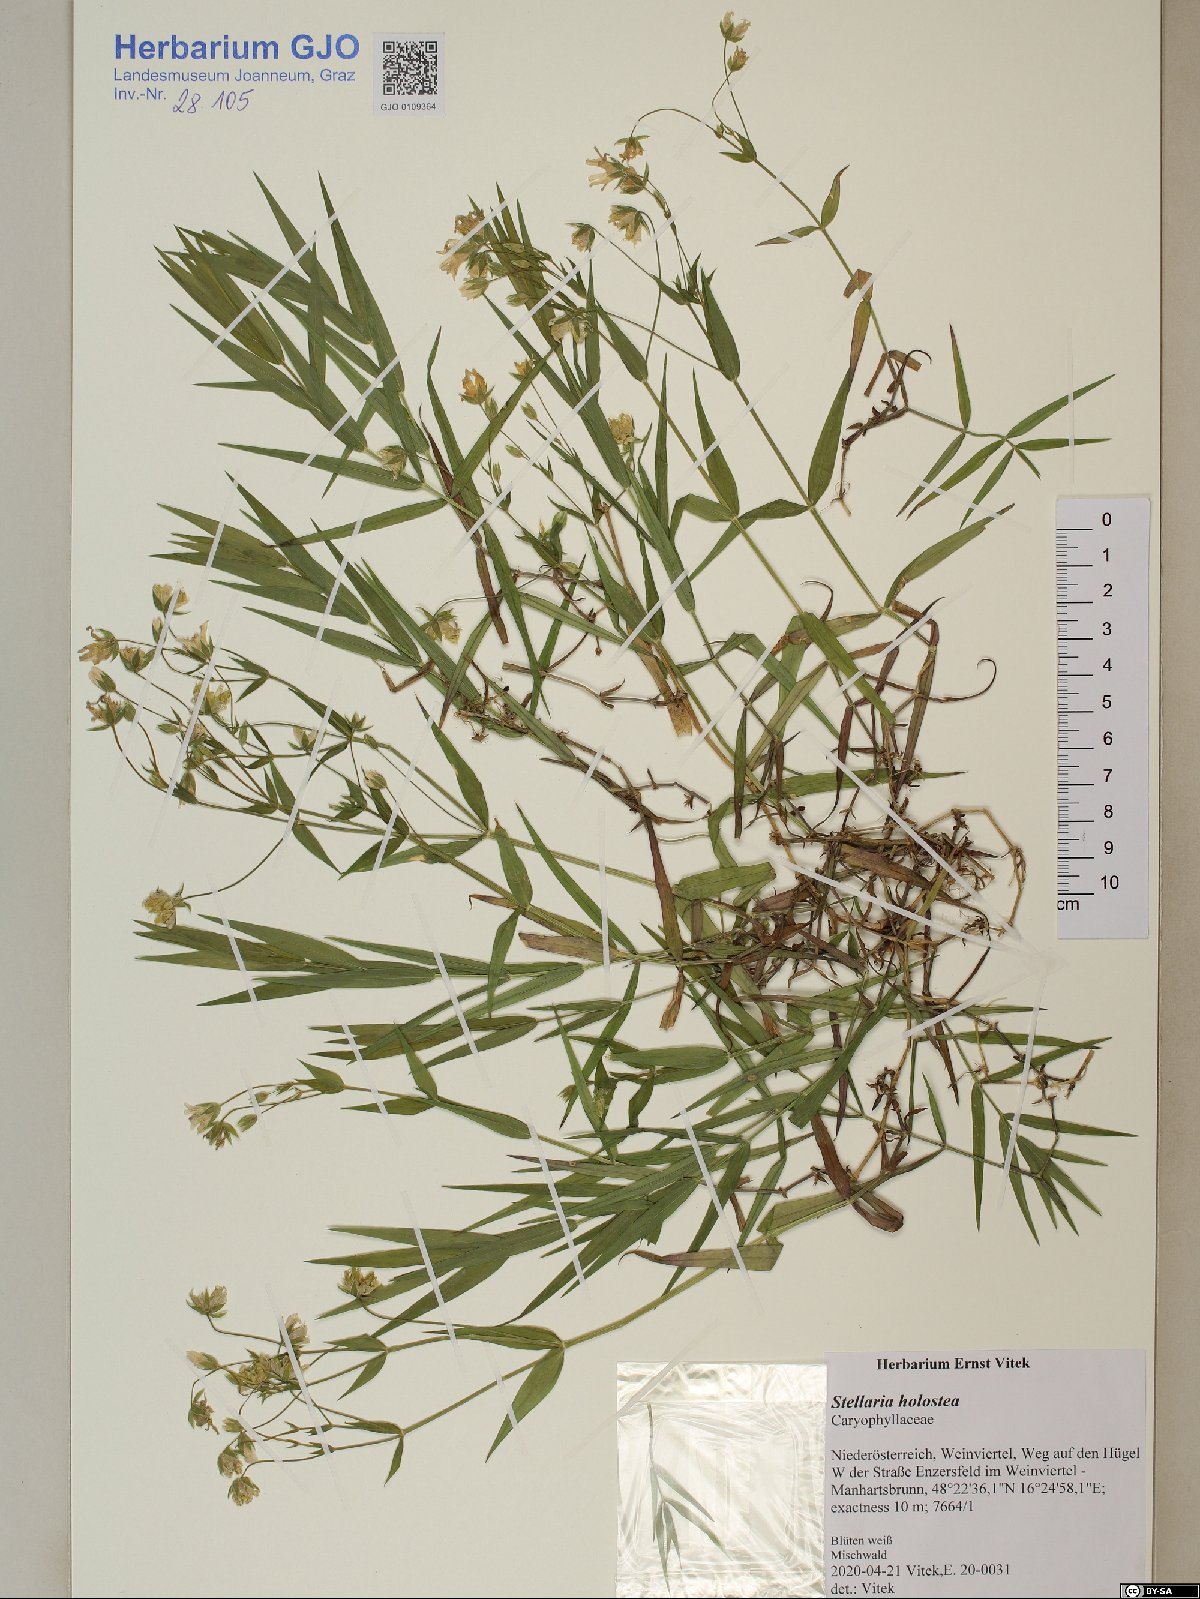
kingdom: Plantae
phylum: Tracheophyta
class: Magnoliopsida
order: Caryophyllales
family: Caryophyllaceae
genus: Rabelera
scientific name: Rabelera holostea
